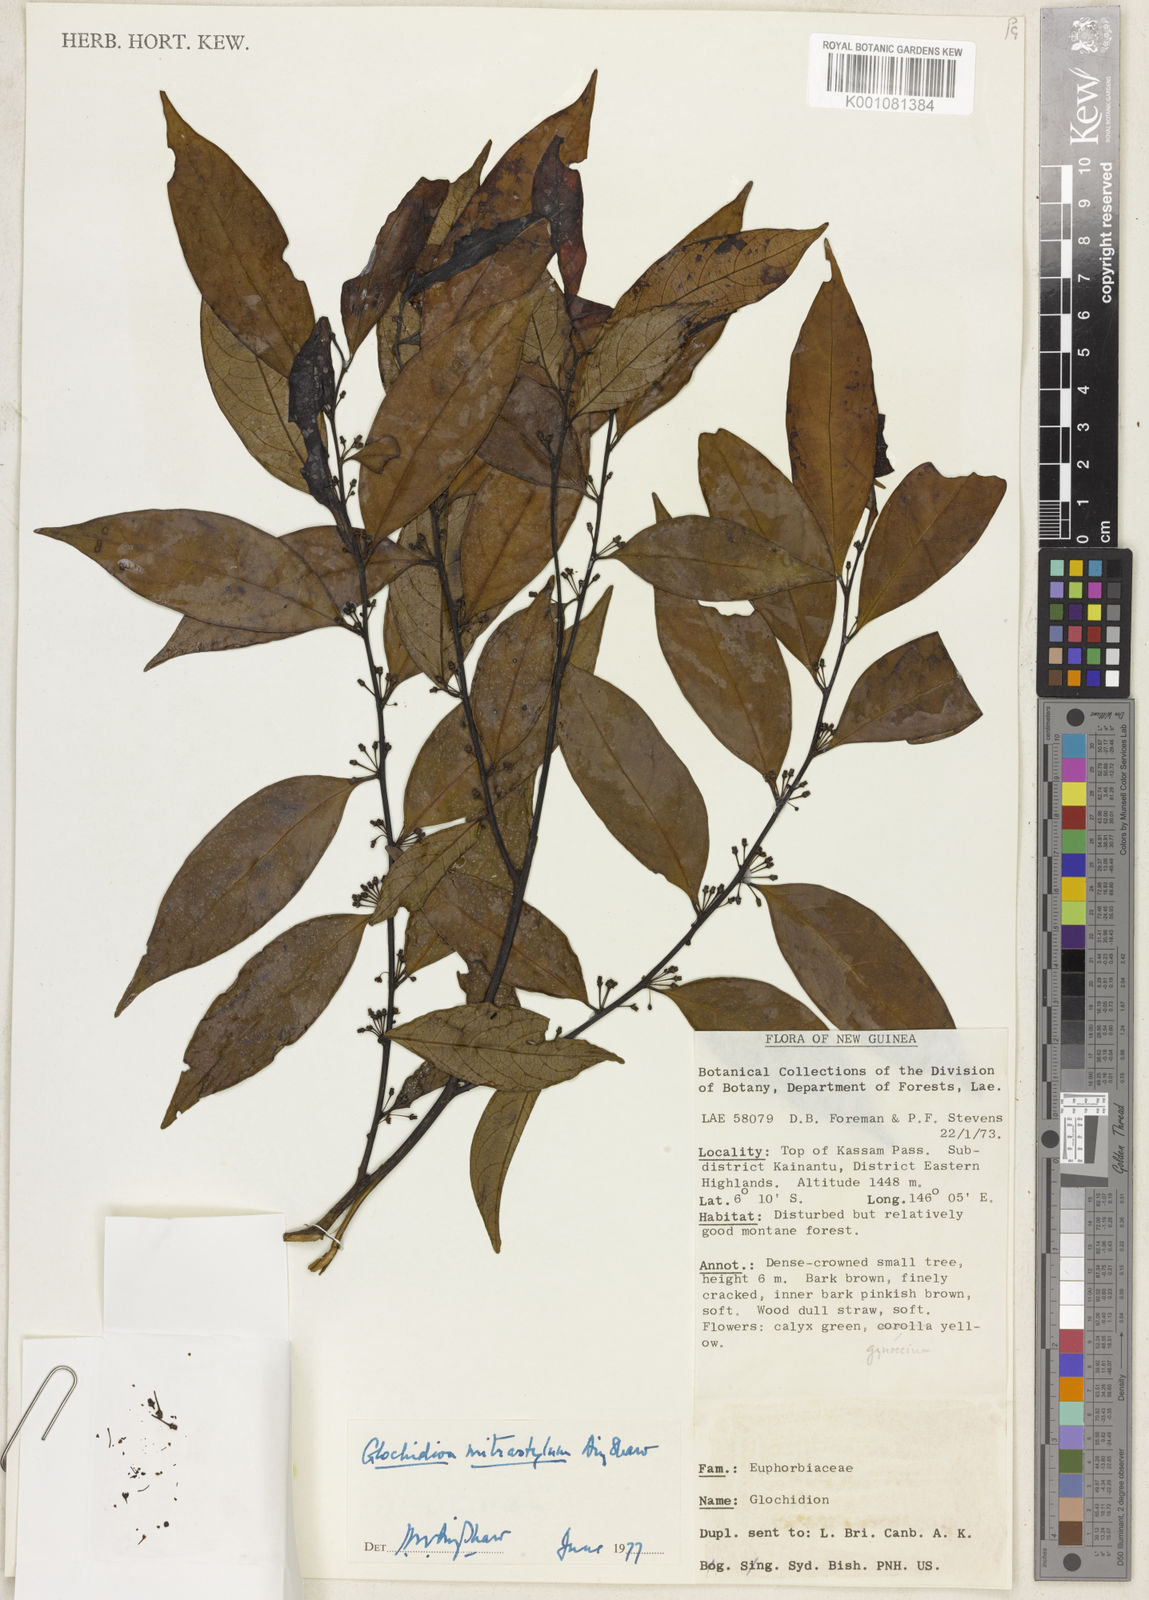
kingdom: Plantae
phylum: Tracheophyta
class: Magnoliopsida
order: Malpighiales
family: Phyllanthaceae
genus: Glochidion
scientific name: Glochidion mitrastylum
